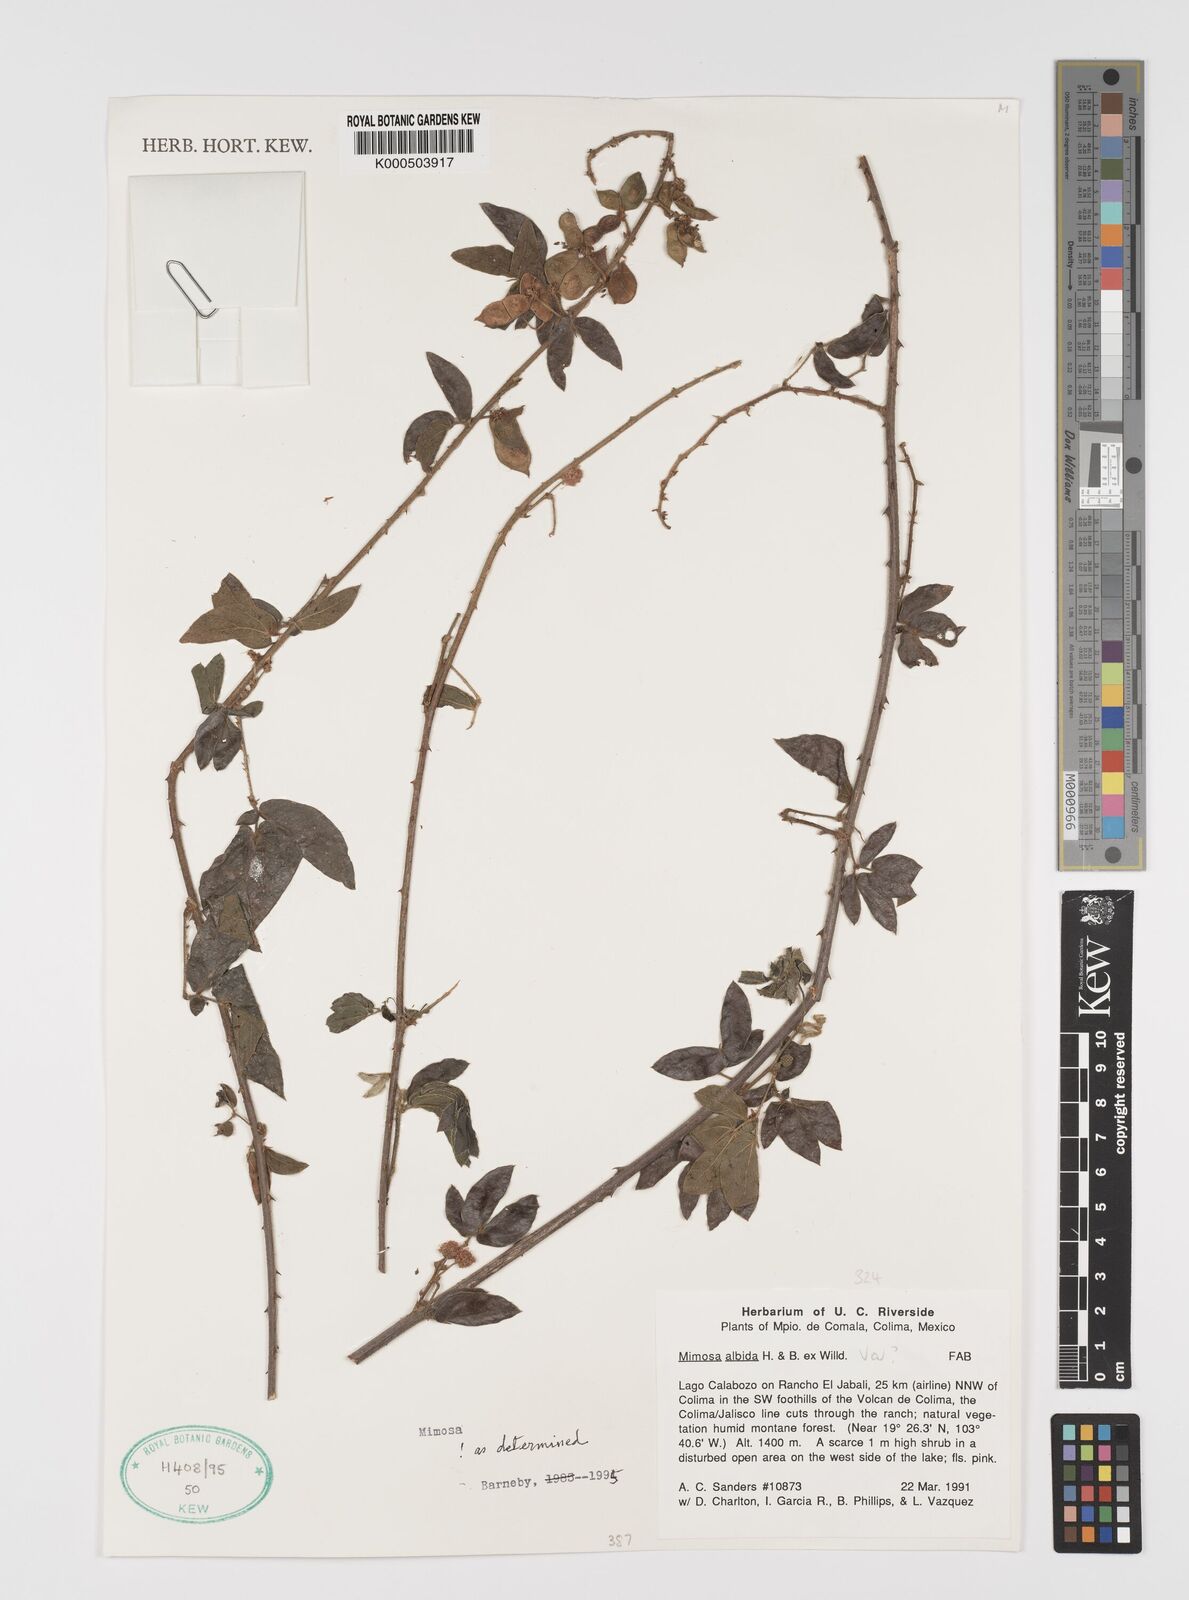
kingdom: Plantae
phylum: Tracheophyta
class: Magnoliopsida
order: Fabales
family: Fabaceae
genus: Mimosa
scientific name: Mimosa albida
